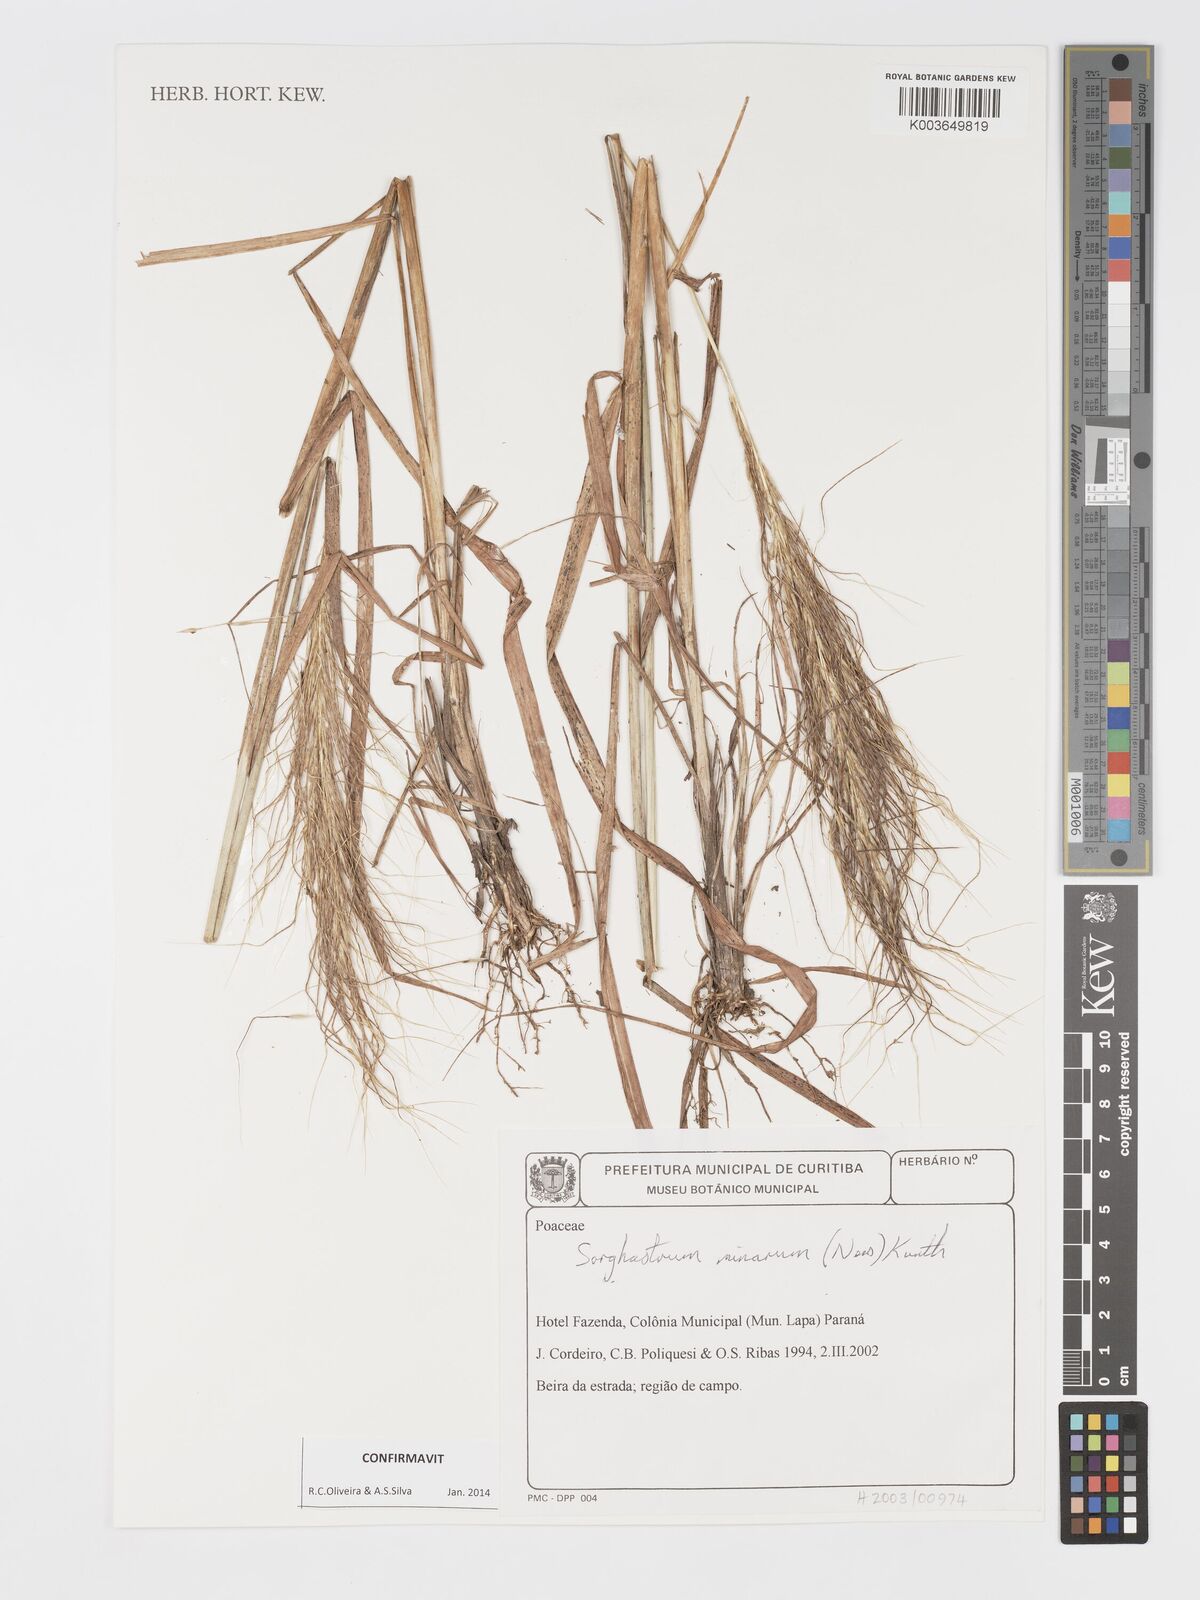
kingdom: Plantae
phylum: Tracheophyta
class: Liliopsida
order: Poales
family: Poaceae
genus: Sorghastrum
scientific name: Sorghastrum minarum
